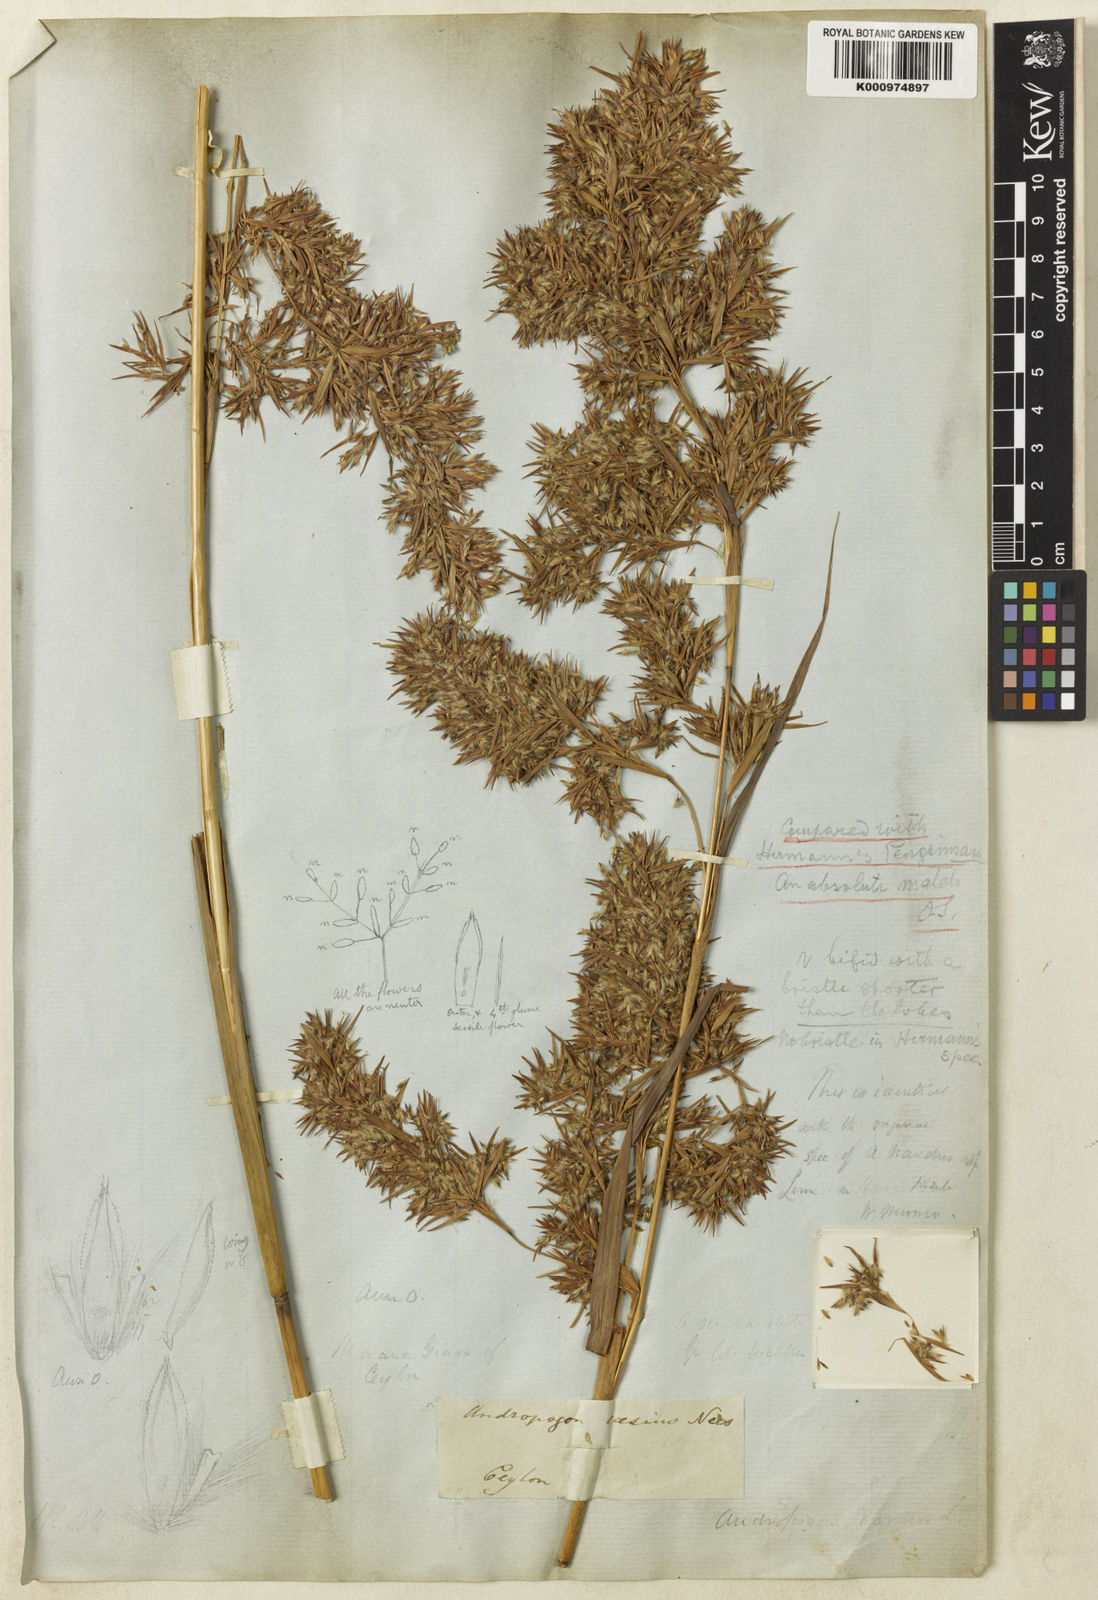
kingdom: Plantae
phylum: Tracheophyta
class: Liliopsida
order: Poales
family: Poaceae
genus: Cymbopogon
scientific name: Cymbopogon nardus
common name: Giant turpentine grass
